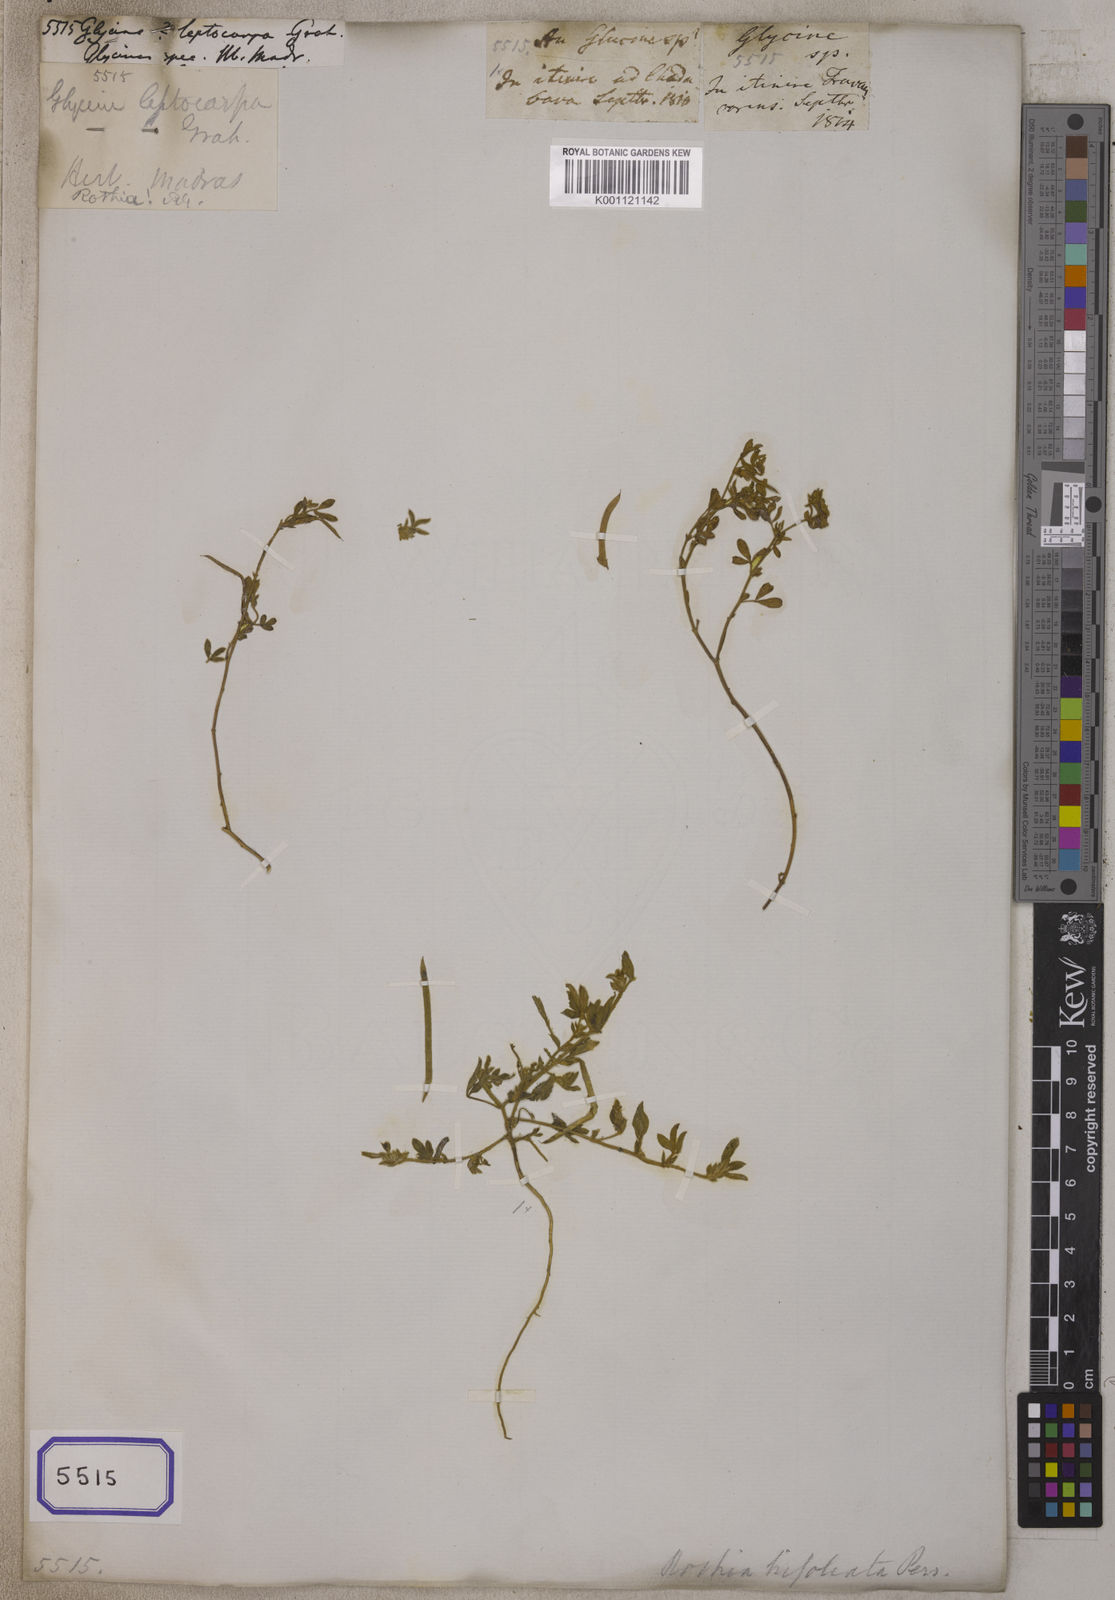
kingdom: Plantae
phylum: Tracheophyta
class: Magnoliopsida
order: Fabales
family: Fabaceae
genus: Rothia
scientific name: Rothia indica
